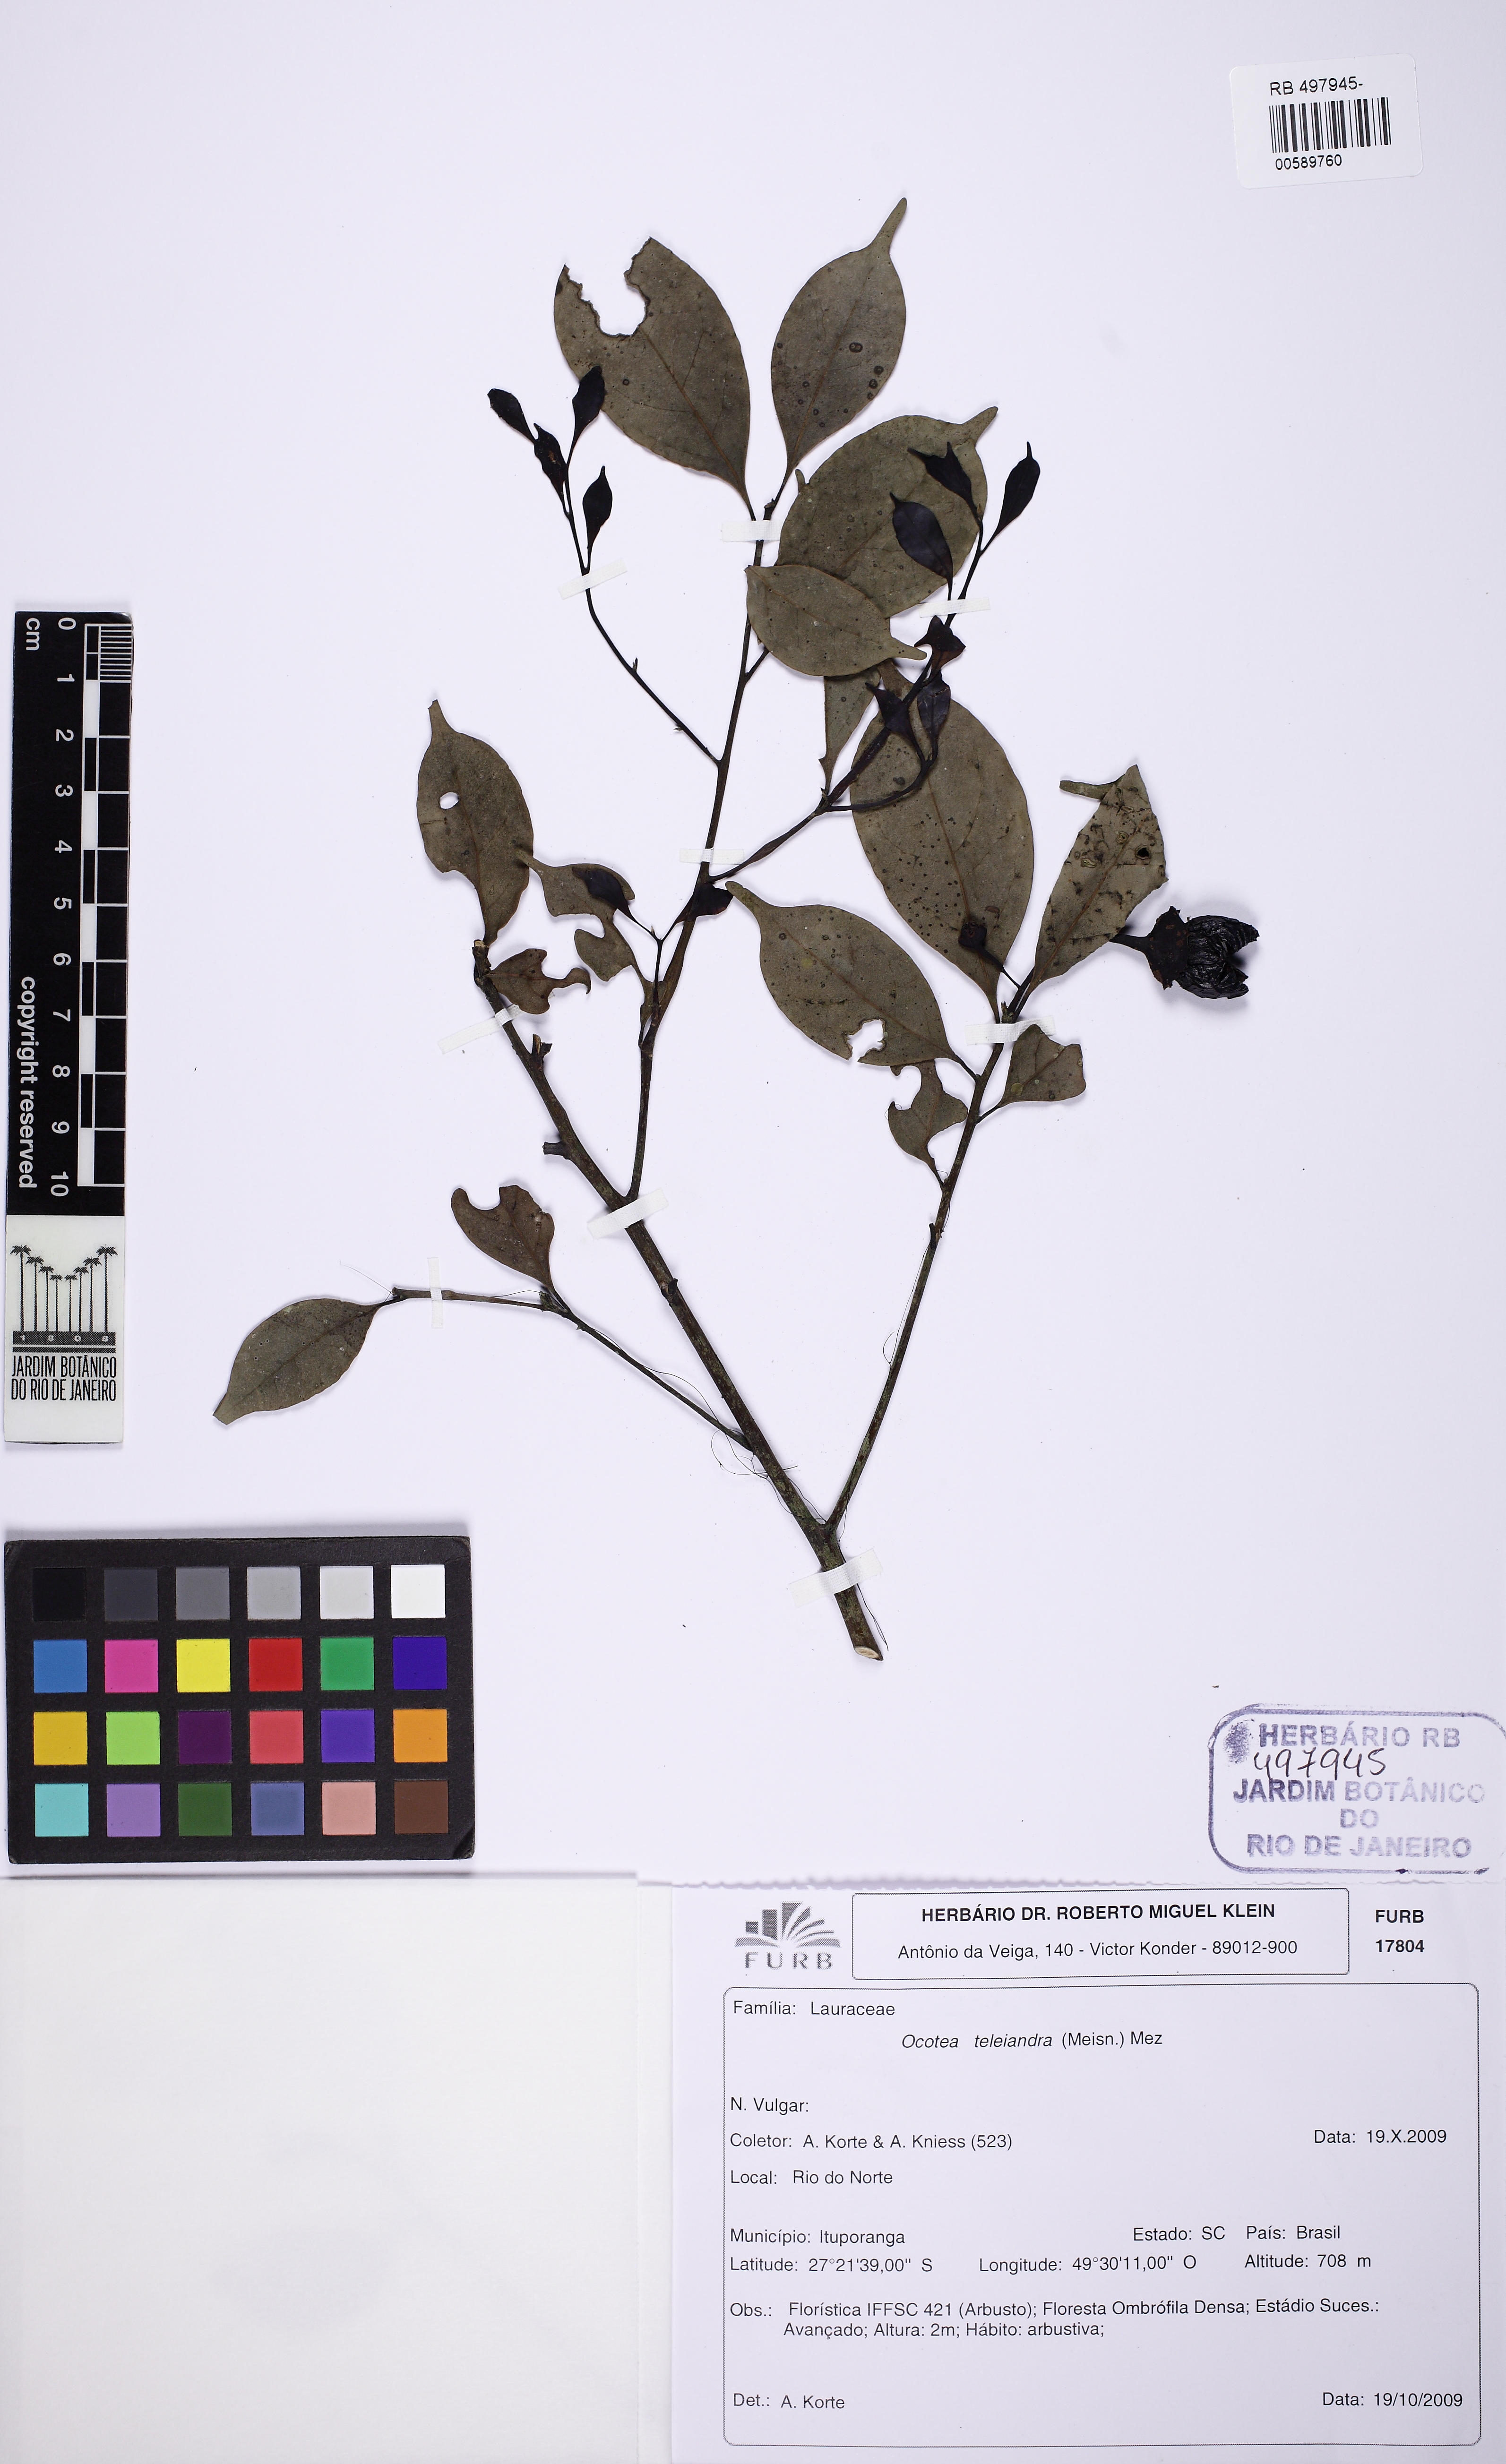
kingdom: Plantae
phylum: Tracheophyta
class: Magnoliopsida
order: Laurales
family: Lauraceae
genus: Ocotea
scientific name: Ocotea teleiandra
